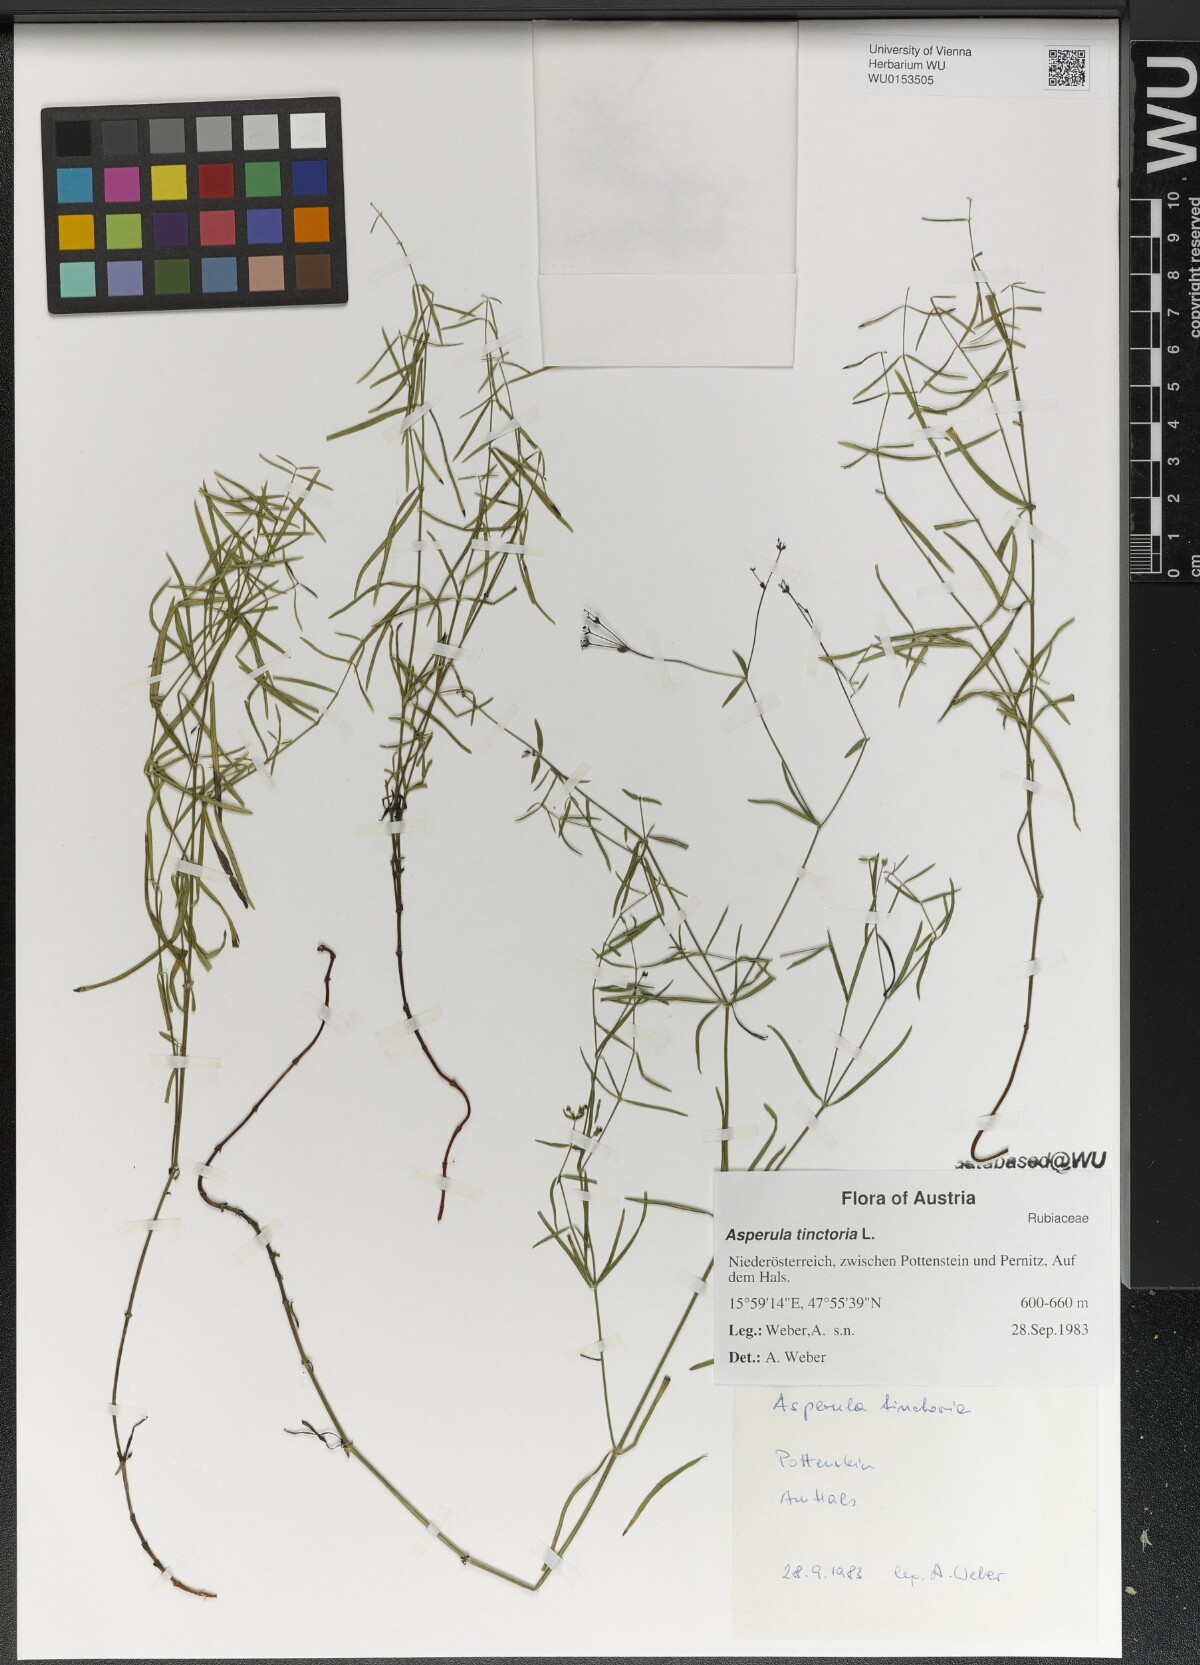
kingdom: Plantae
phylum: Tracheophyta
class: Magnoliopsida
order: Gentianales
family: Rubiaceae
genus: Asperula
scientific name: Asperula tinctoria
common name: Dyer's woodruff
